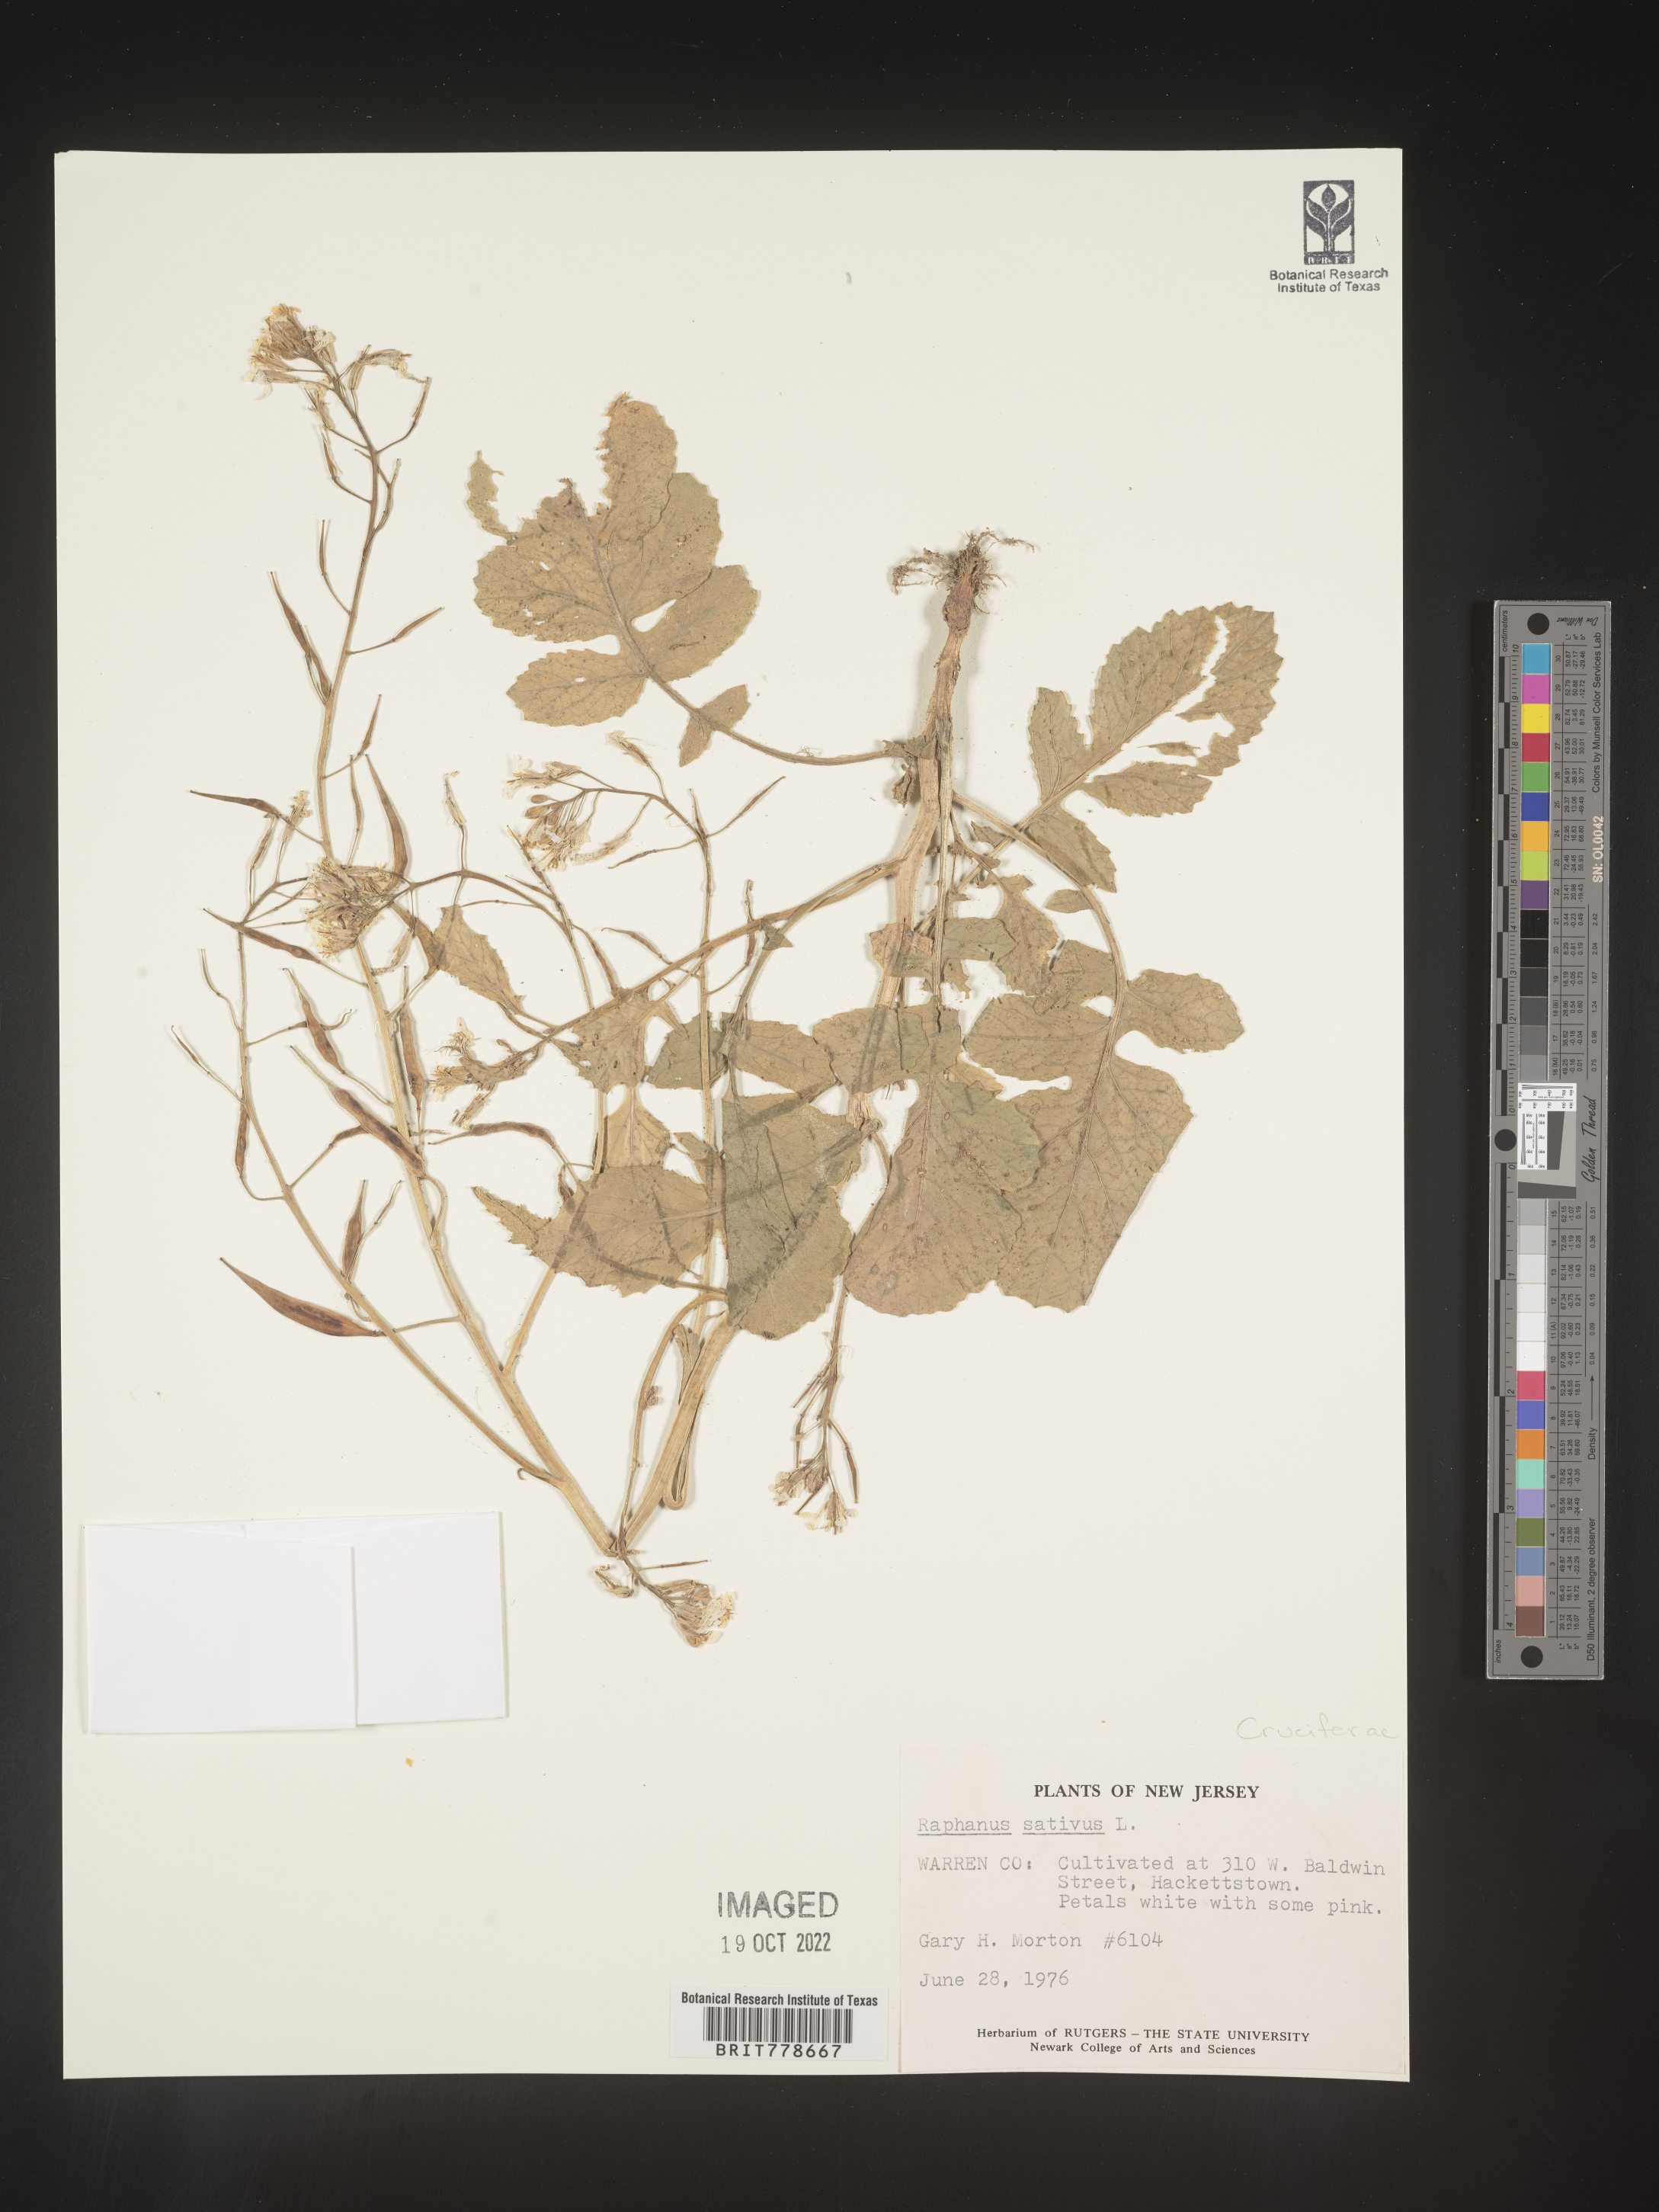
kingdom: Plantae
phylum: Tracheophyta
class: Magnoliopsida
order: Brassicales
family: Brassicaceae
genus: Raphanus
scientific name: Raphanus sativus
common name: Cultivated radish
